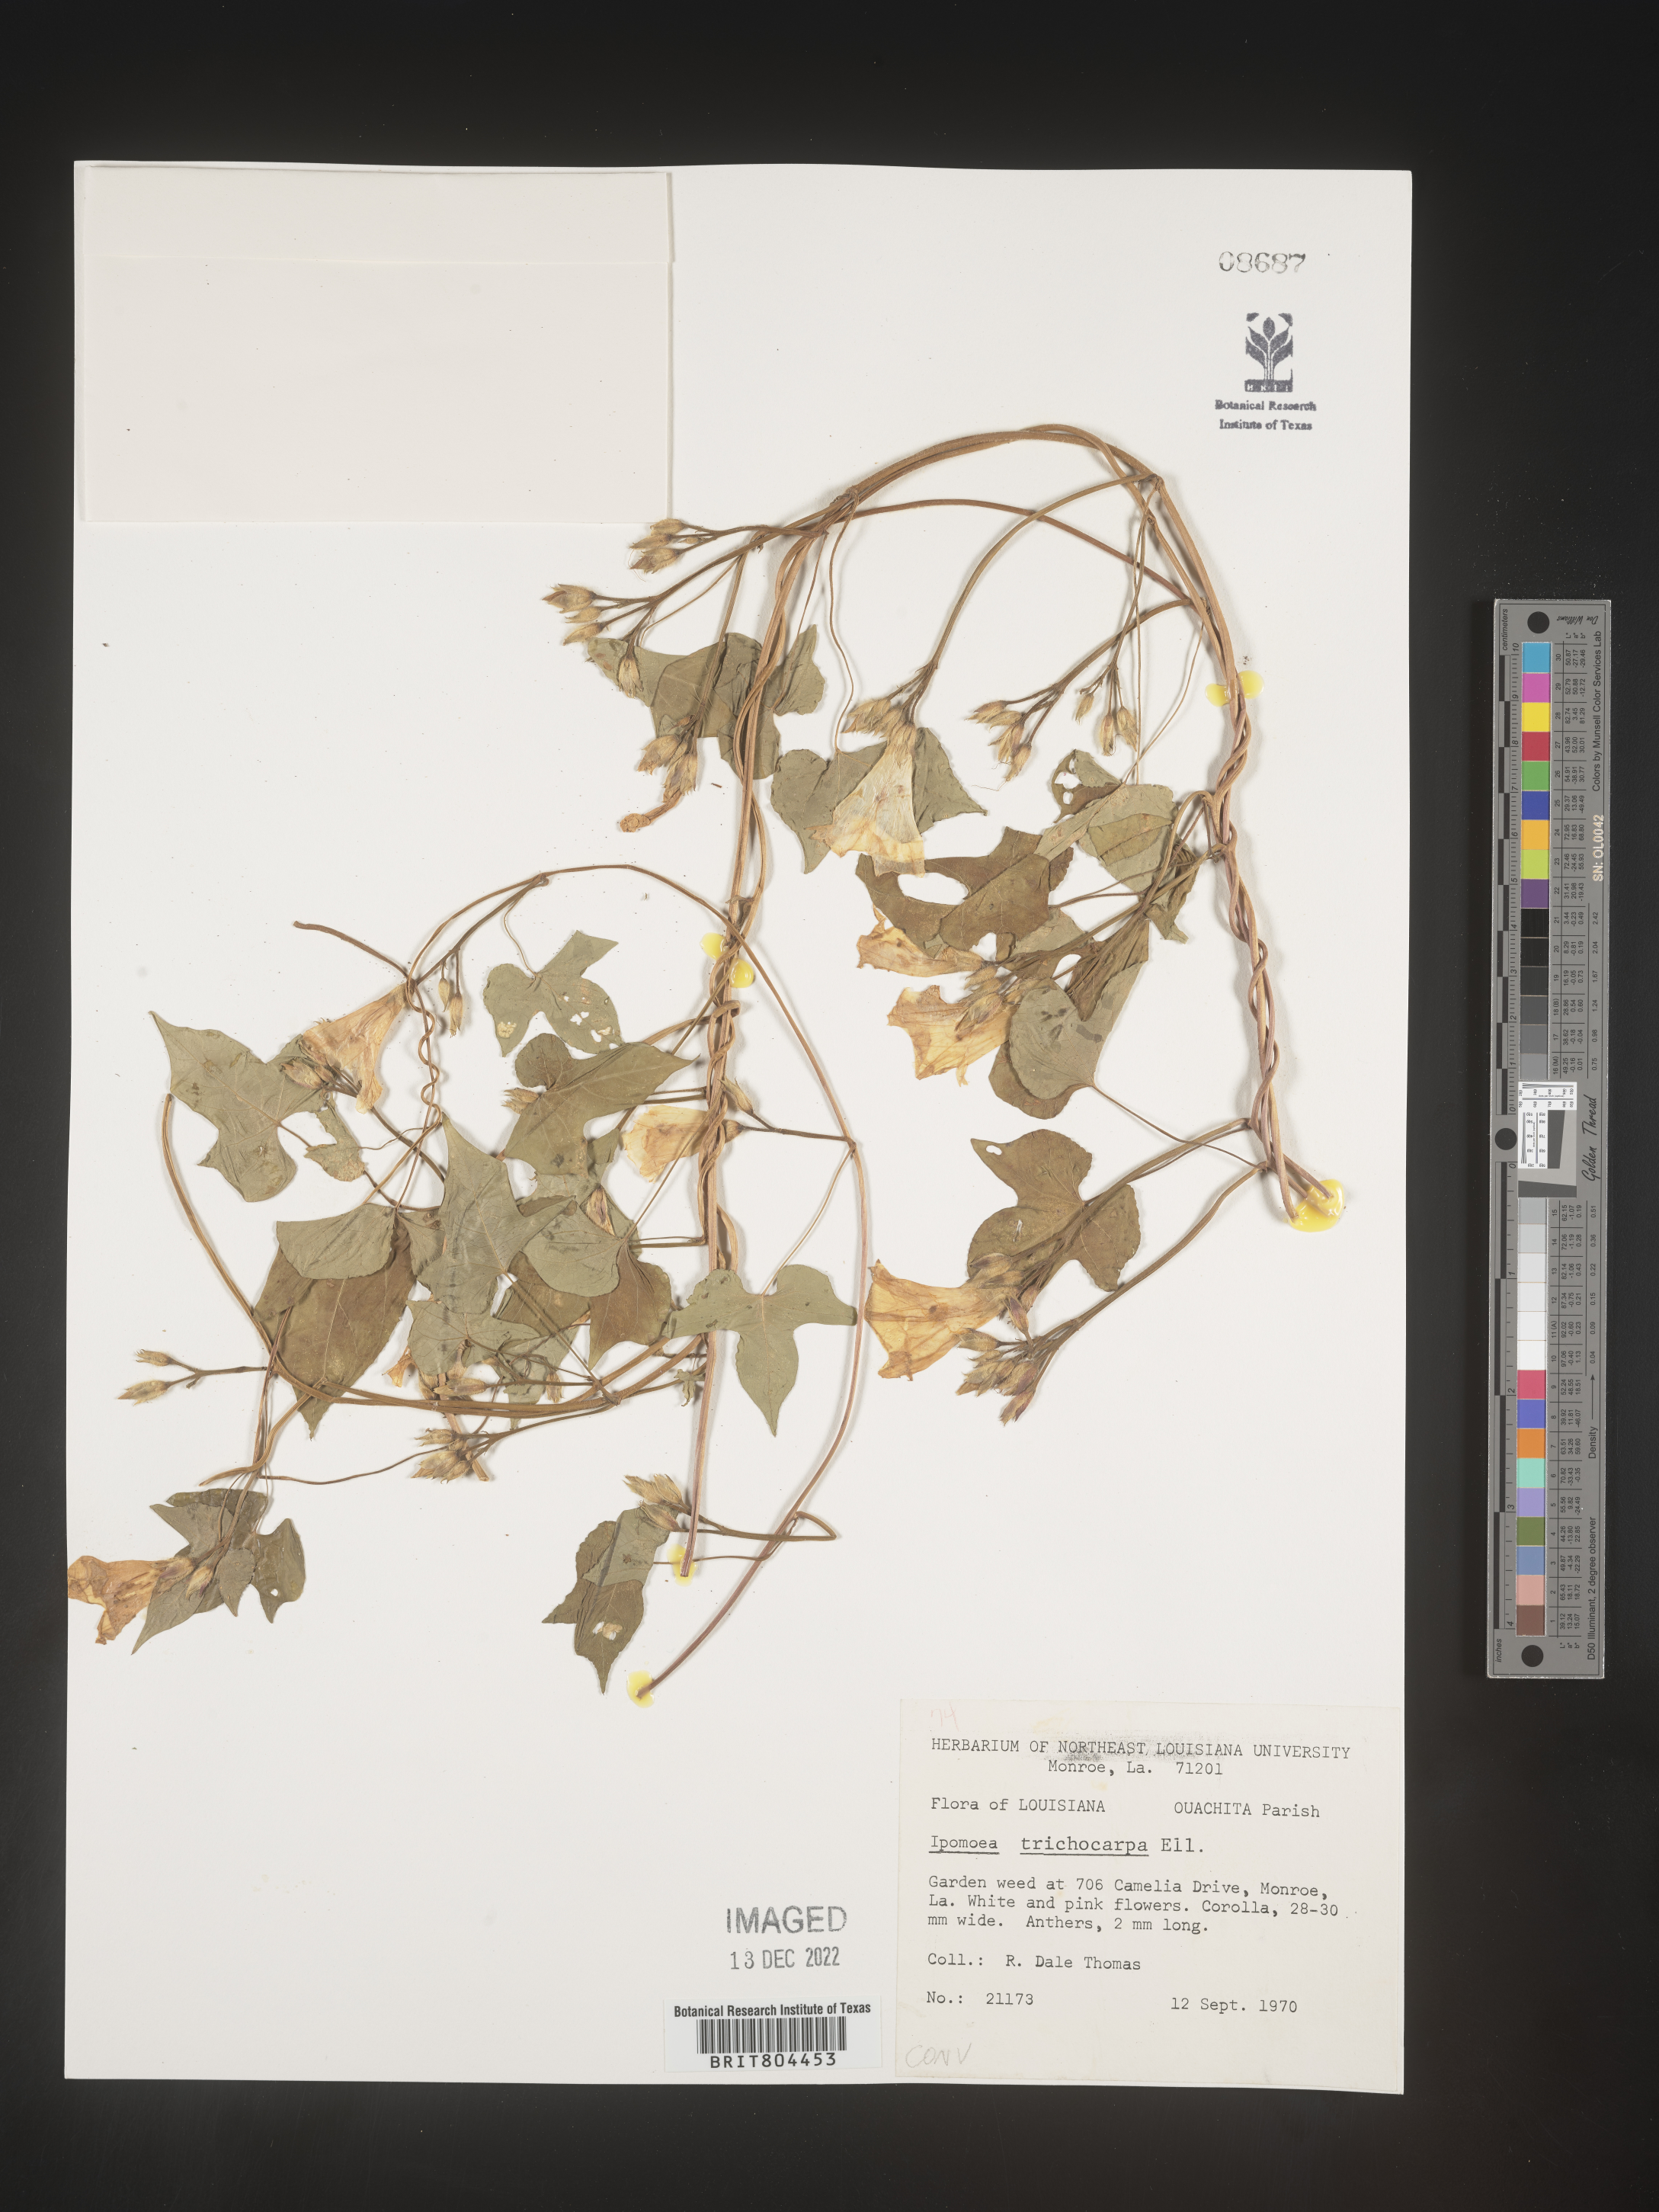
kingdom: Plantae
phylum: Tracheophyta
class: Magnoliopsida
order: Solanales
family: Convolvulaceae
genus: Ipomoea
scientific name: Ipomoea cordatotriloba
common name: Cotton morning glory
